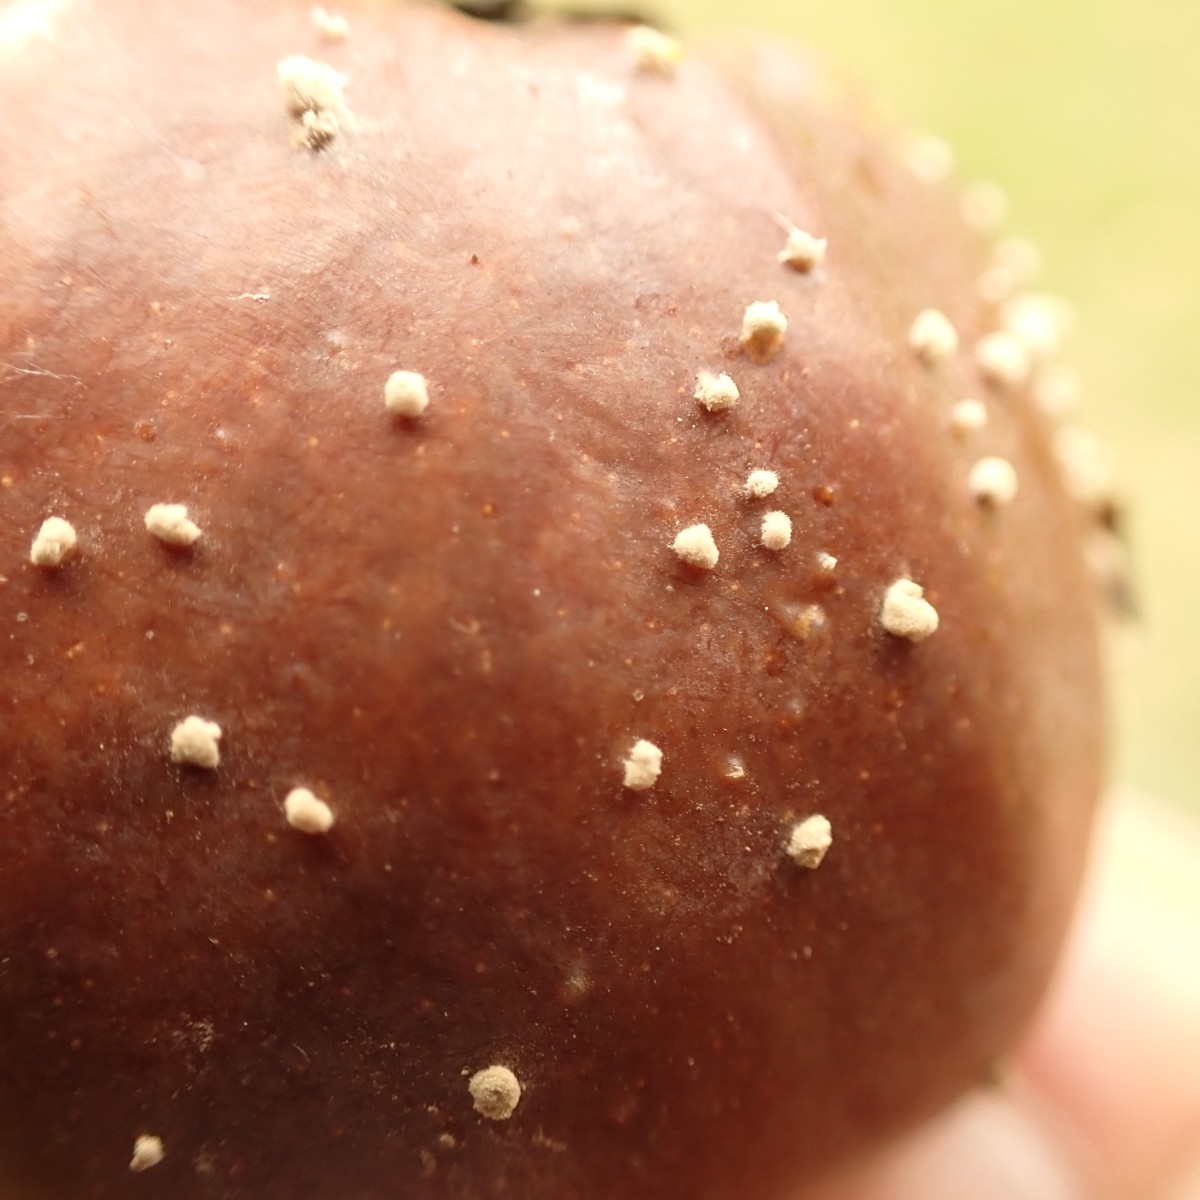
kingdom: Fungi
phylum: Ascomycota
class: Leotiomycetes
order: Helotiales
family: Sclerotiniaceae
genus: Monilinia
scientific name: Monilinia laxa
